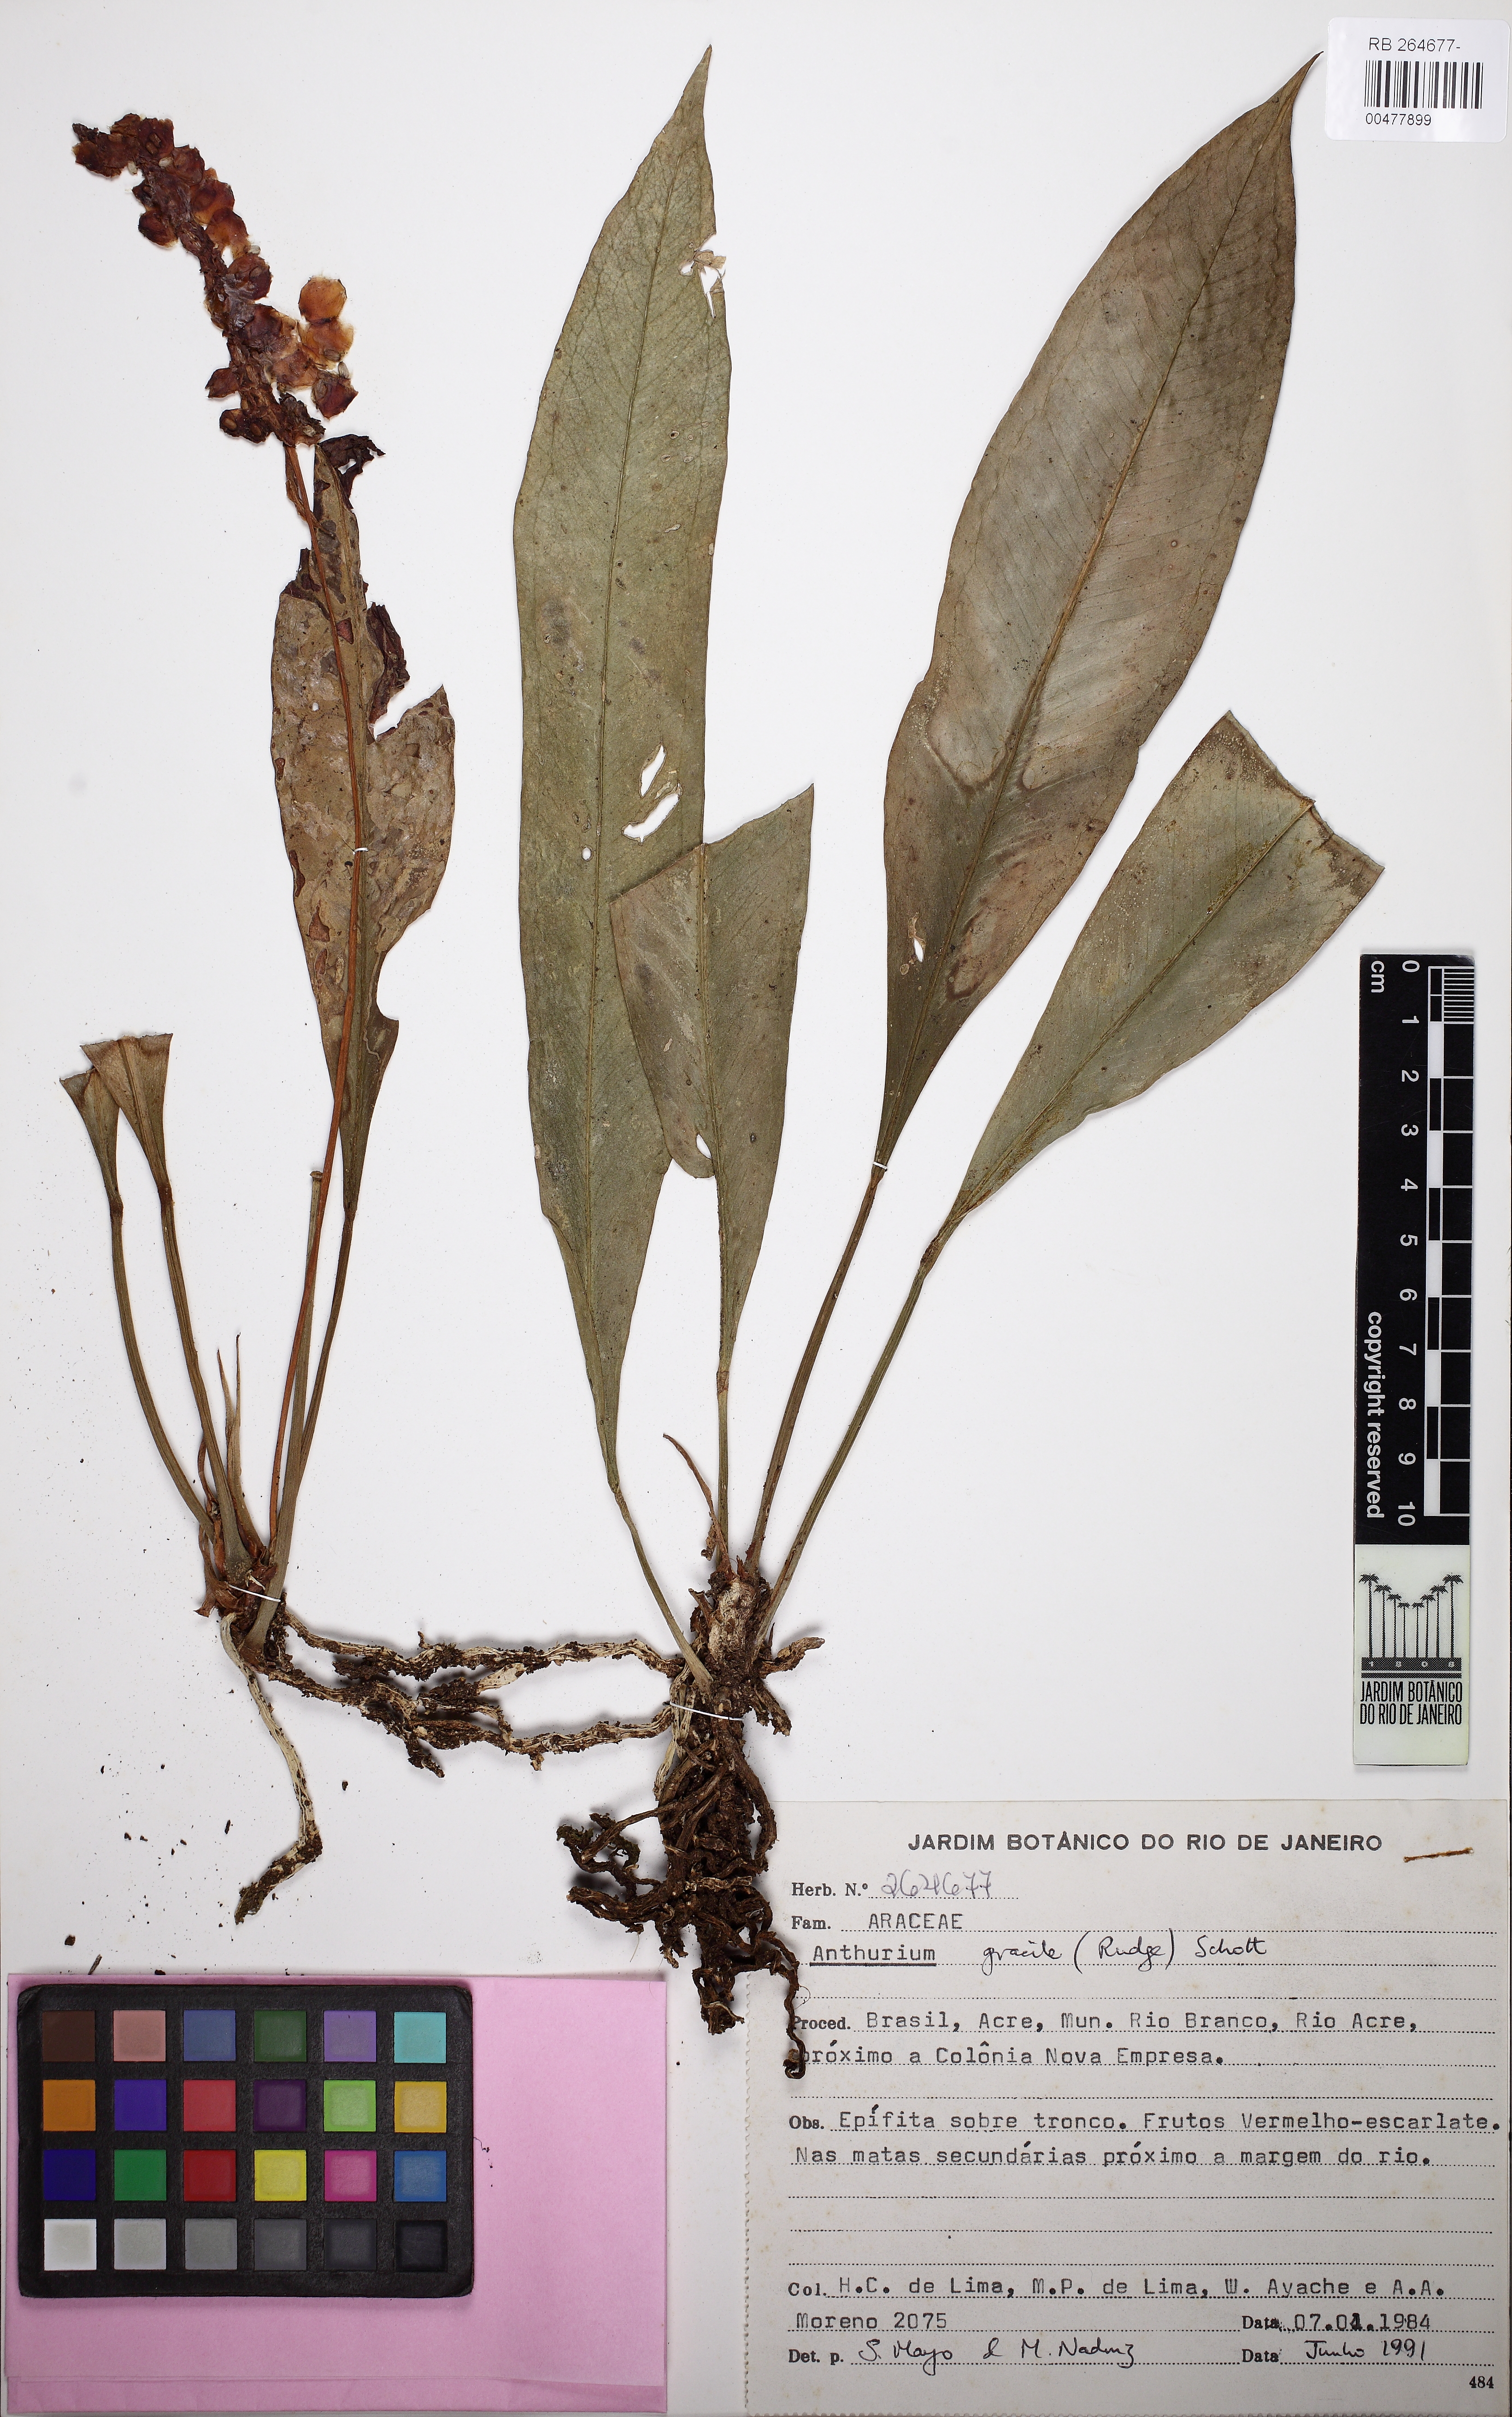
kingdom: Plantae
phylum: Tracheophyta
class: Liliopsida
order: Alismatales
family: Araceae
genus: Anthurium
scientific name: Anthurium gracile
